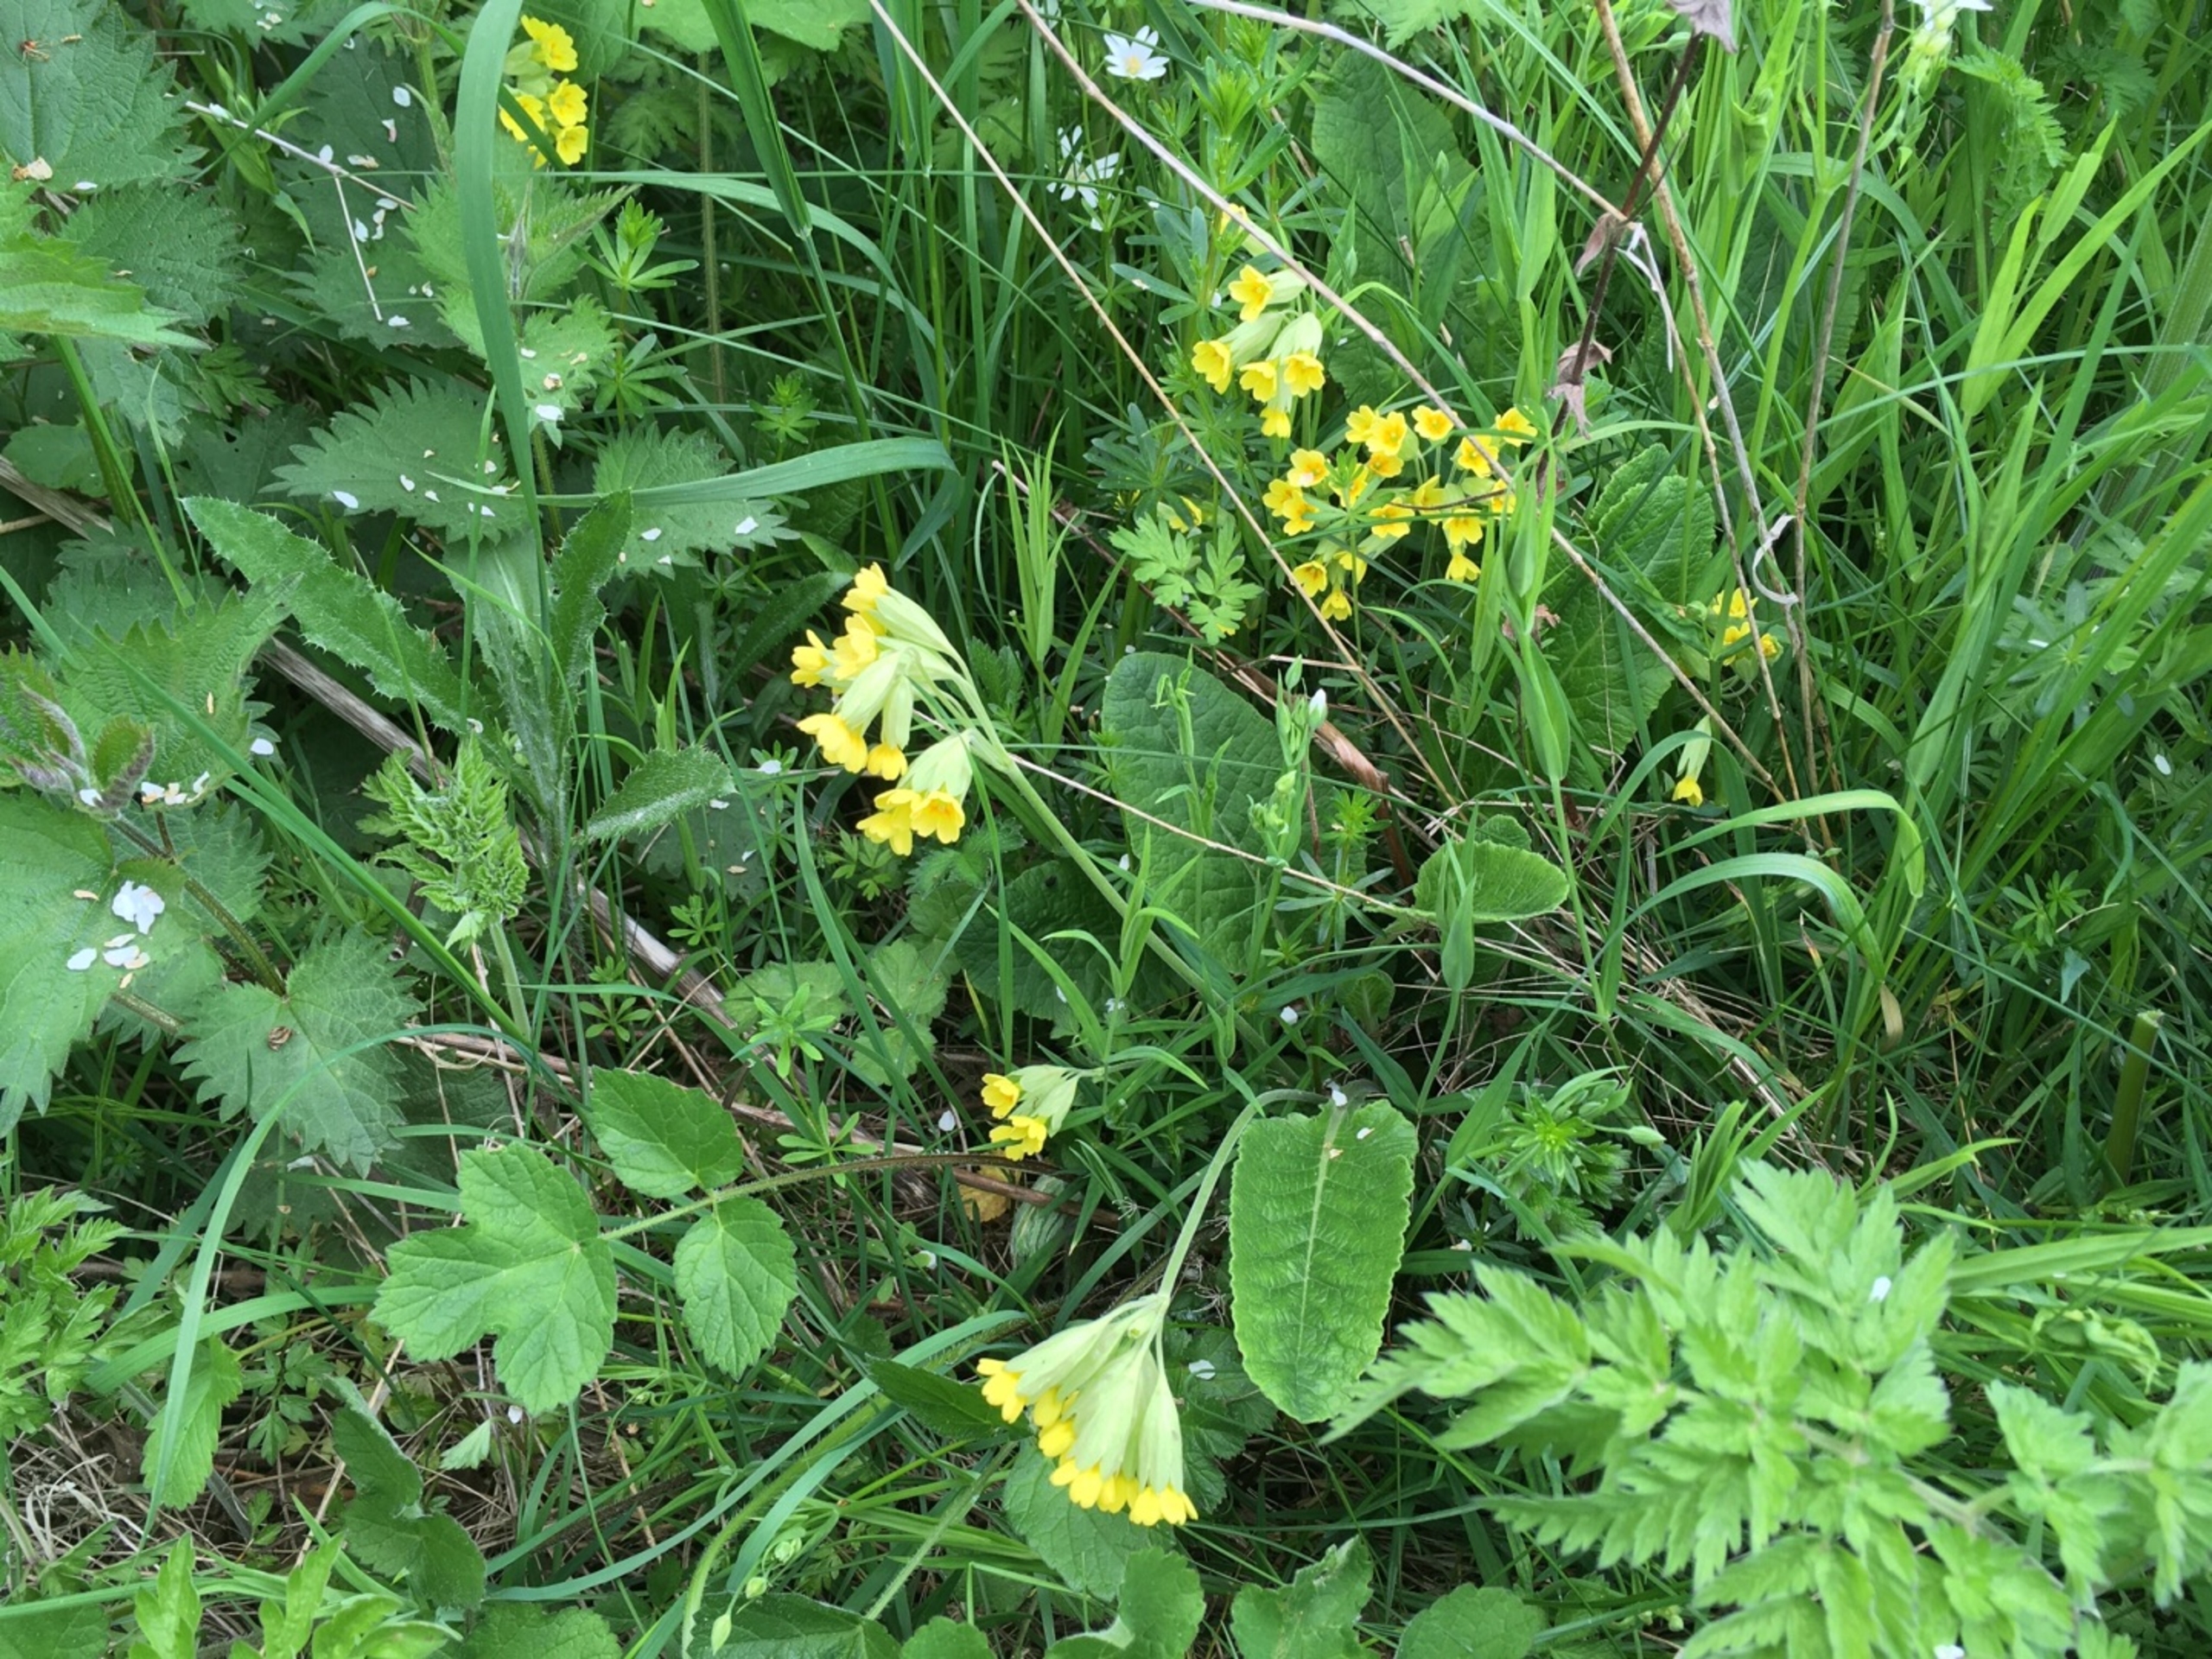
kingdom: Plantae
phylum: Tracheophyta
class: Magnoliopsida
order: Ericales
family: Primulaceae
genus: Primula
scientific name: Primula veris
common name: Hulkravet kodriver
